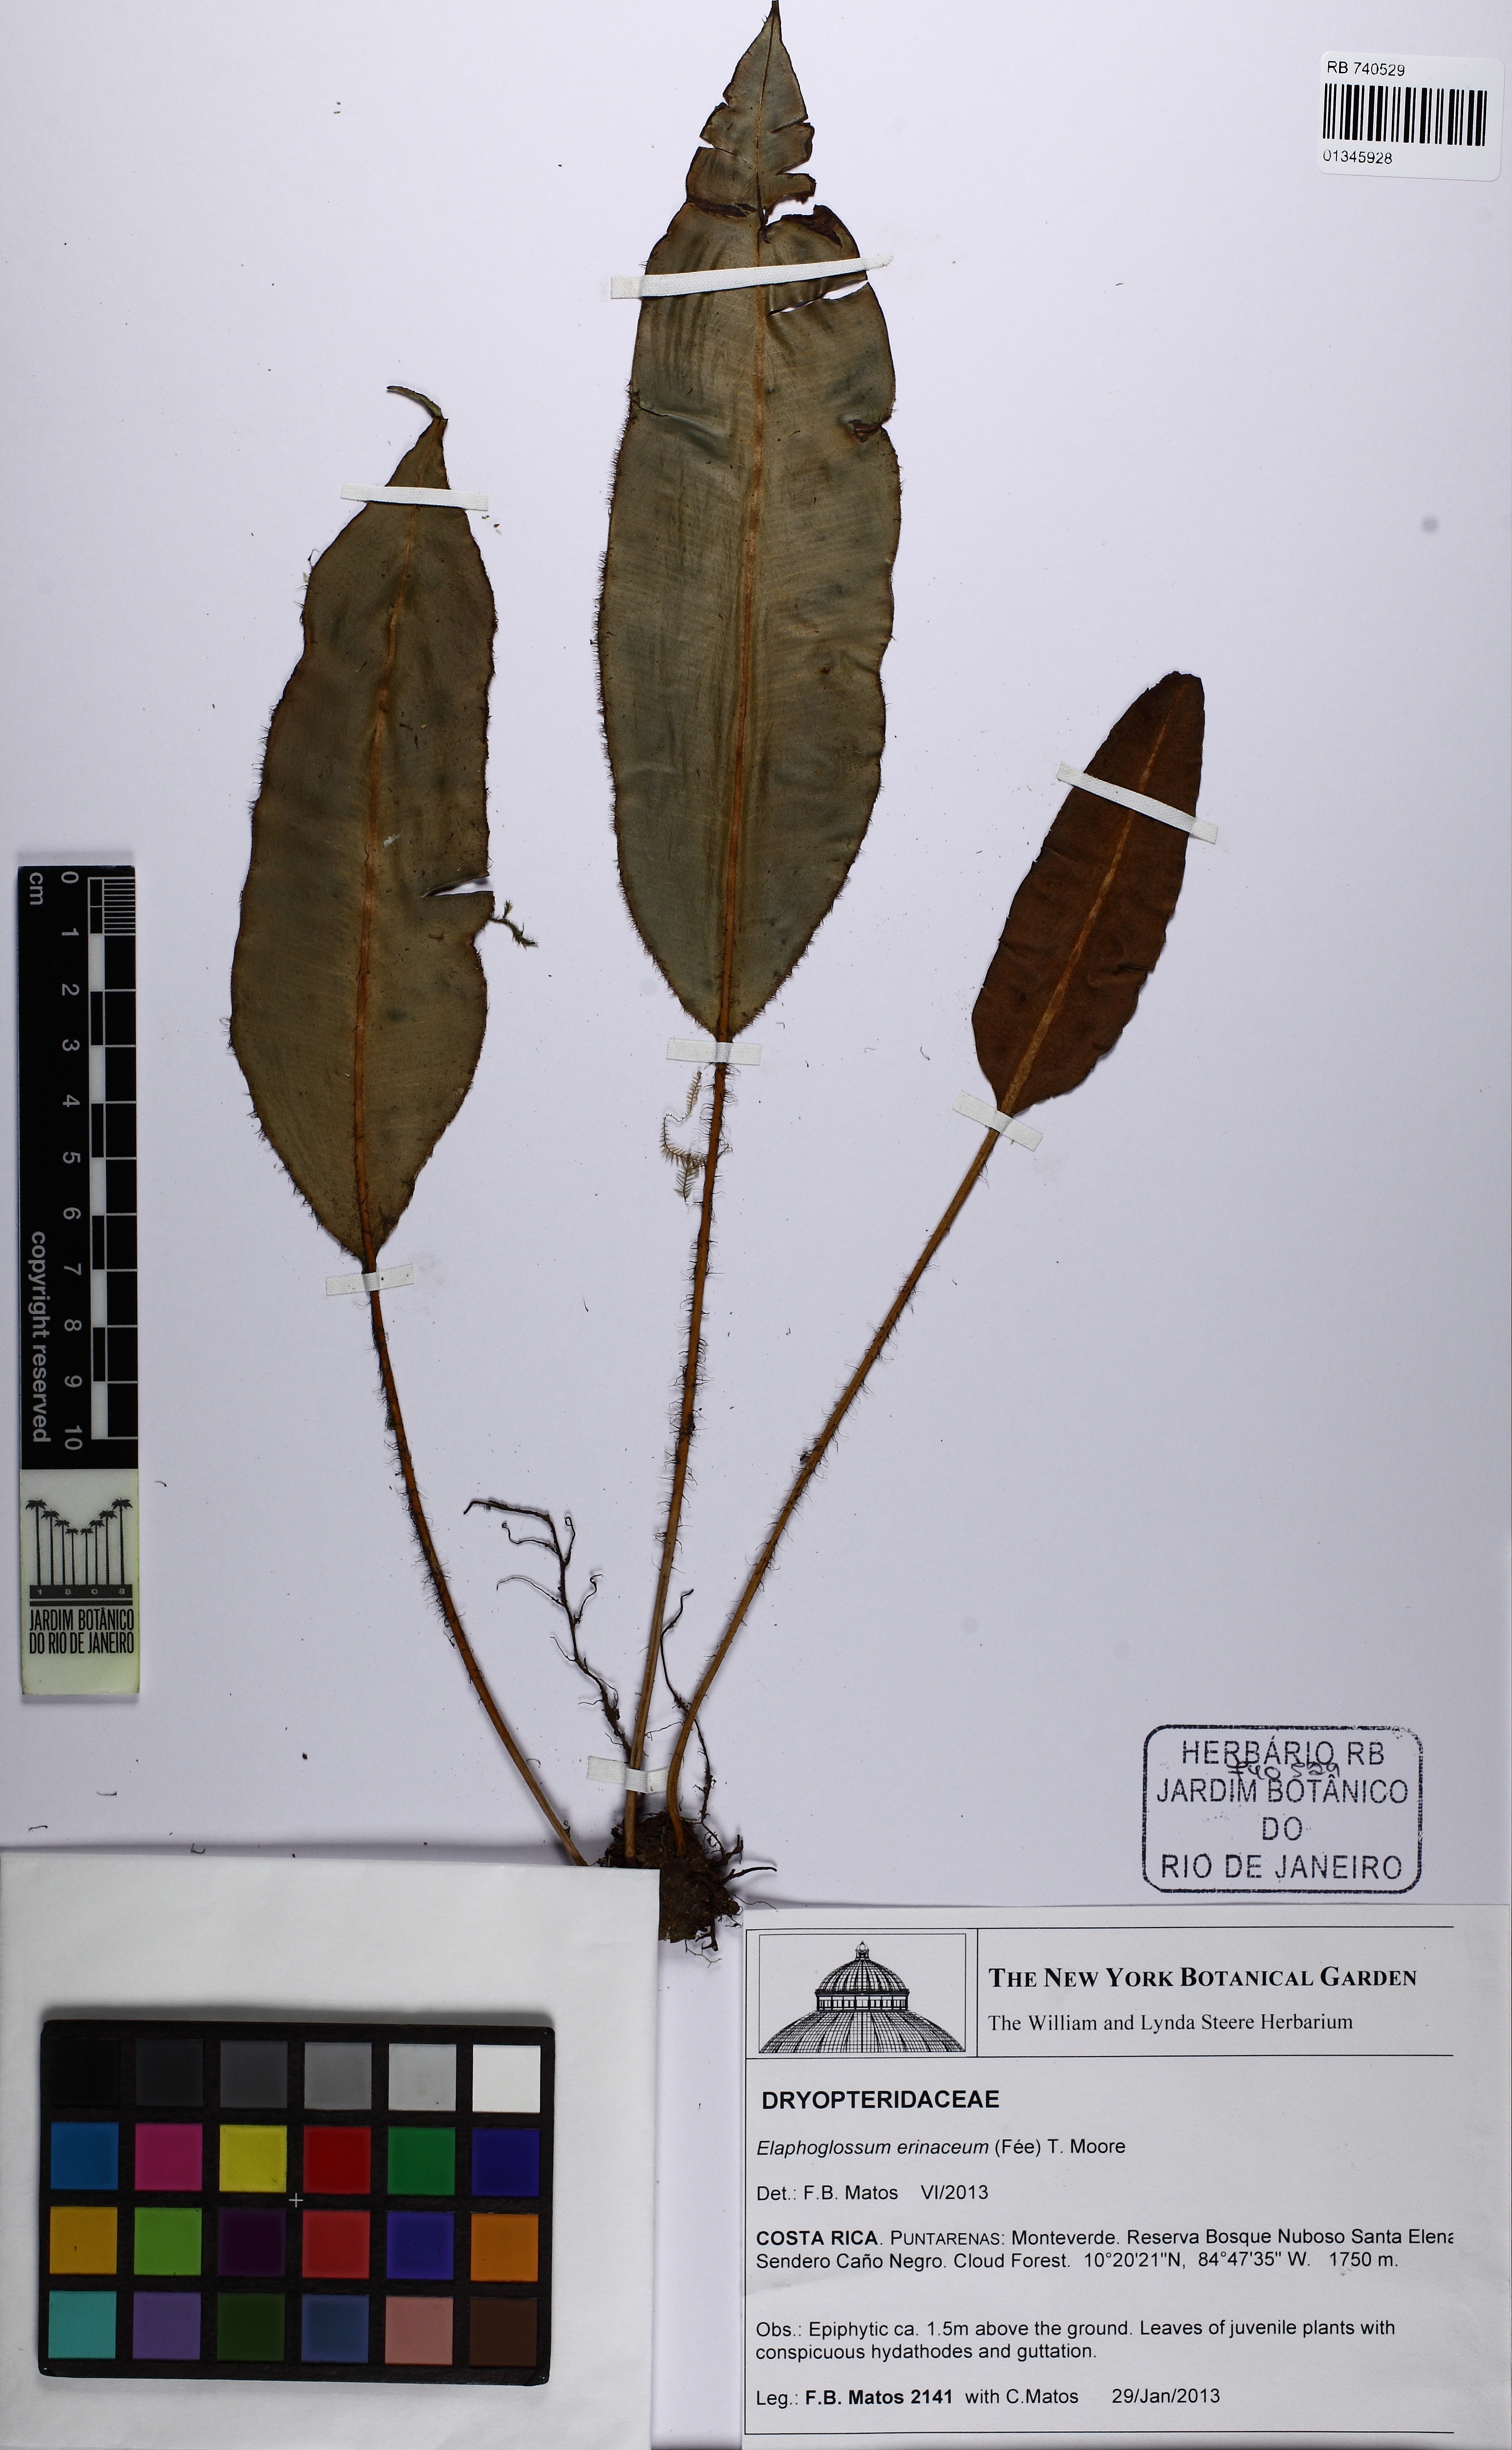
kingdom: Plantae
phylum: Tracheophyta
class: Polypodiopsida
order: Polypodiales
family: Dryopteridaceae
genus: Elaphoglossum
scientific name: Elaphoglossum erinaceum
